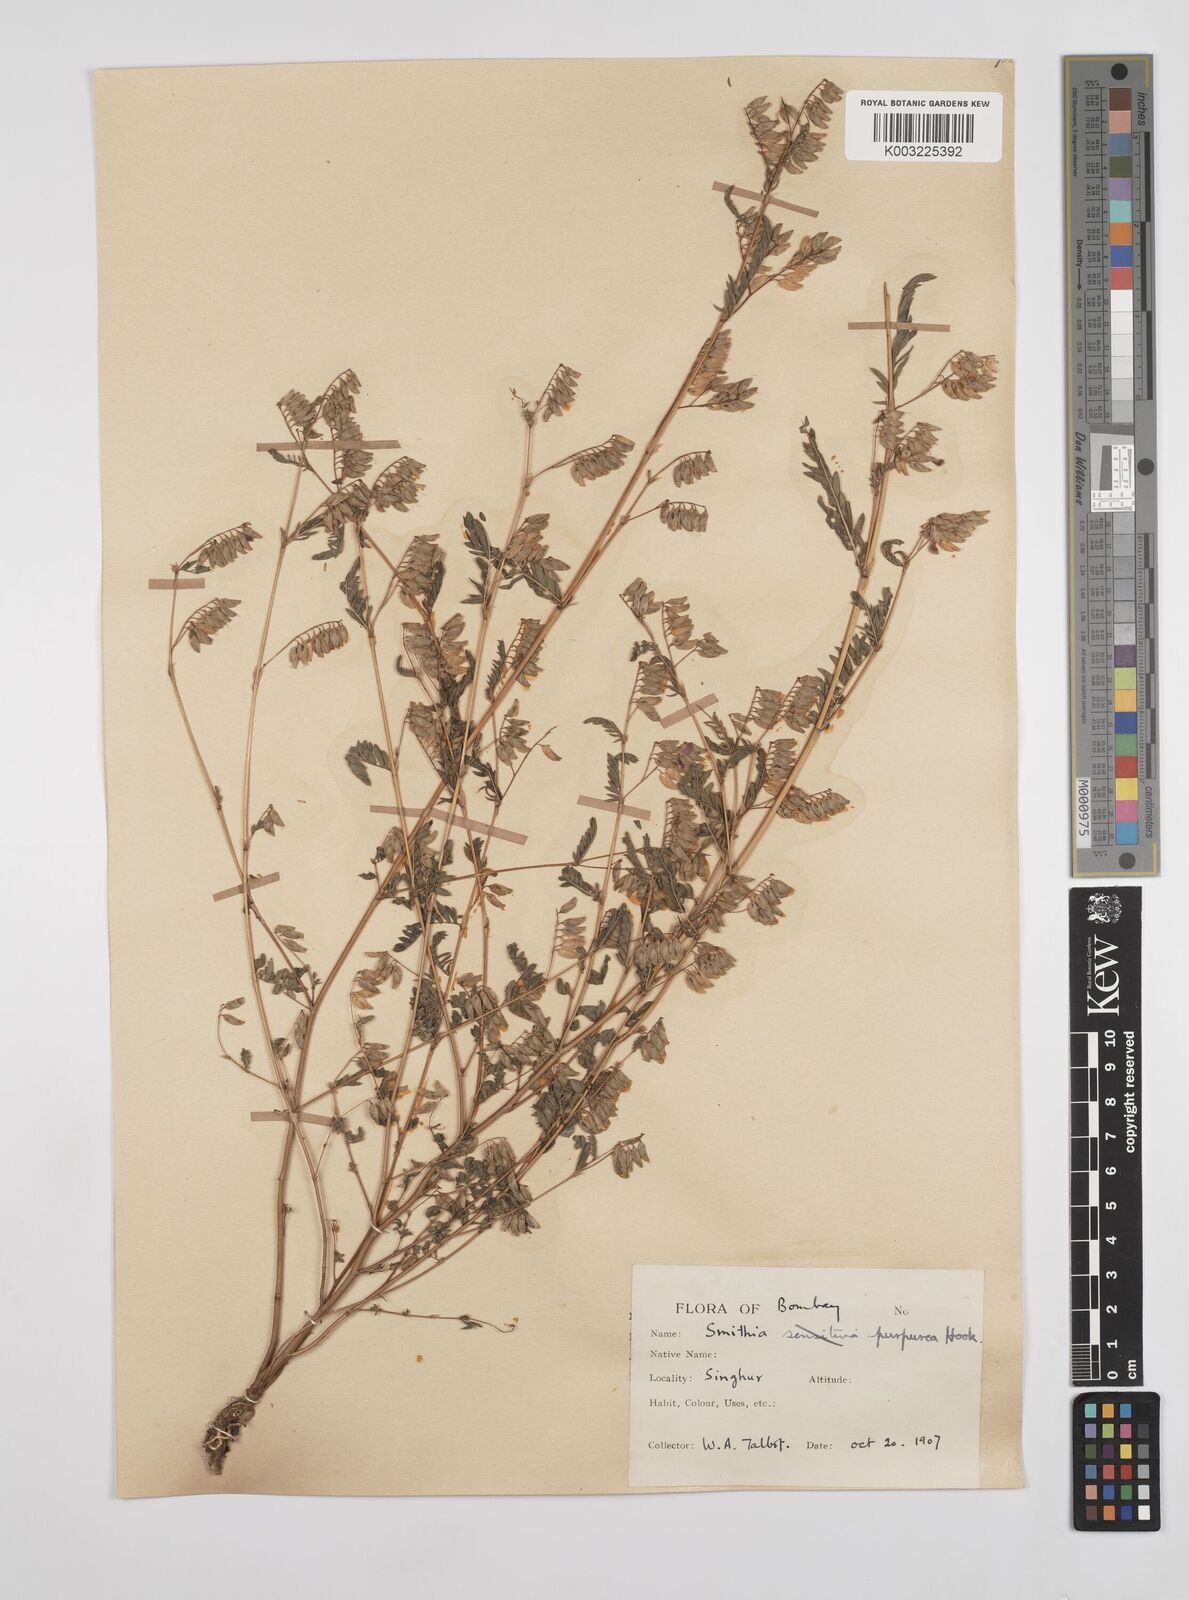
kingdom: Plantae
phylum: Tracheophyta
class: Magnoliopsida
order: Fabales
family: Fabaceae
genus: Smithia
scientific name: Smithia purpurea
